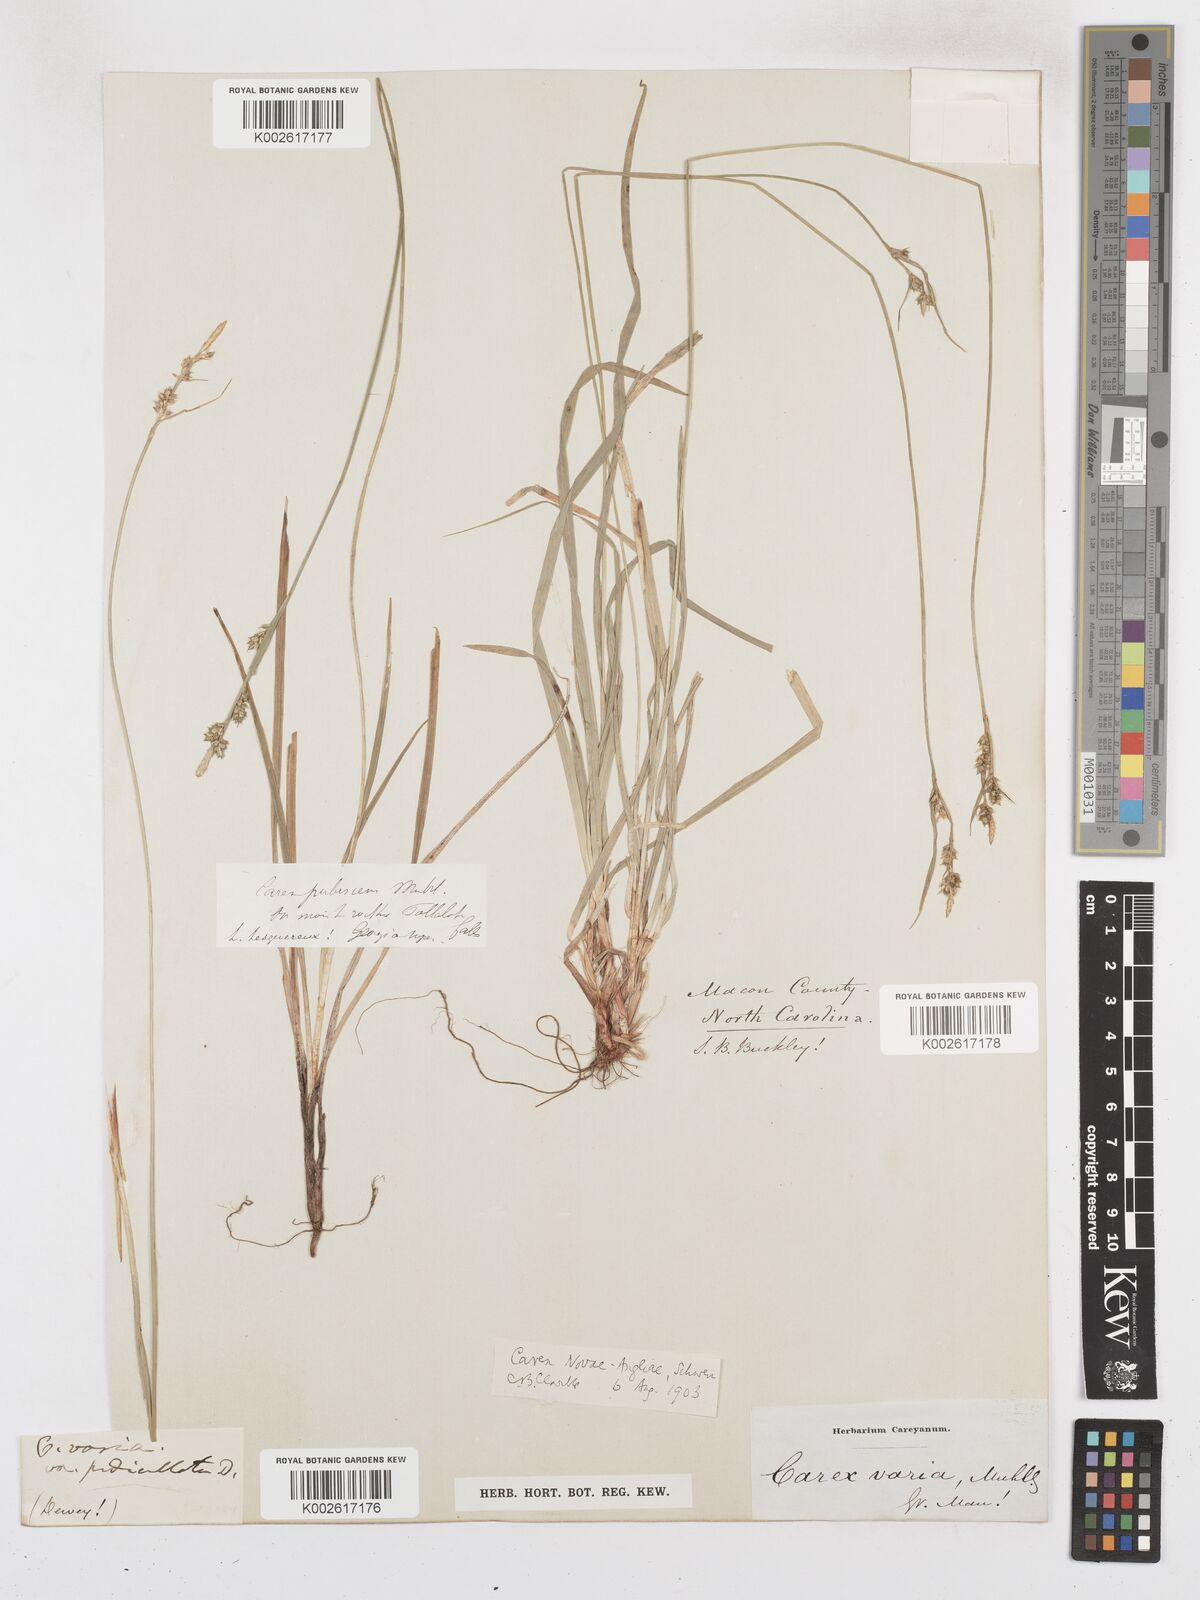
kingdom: Plantae
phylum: Tracheophyta
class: Liliopsida
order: Poales
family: Cyperaceae
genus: Carex
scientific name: Carex novae-angliae
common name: New england sedge
